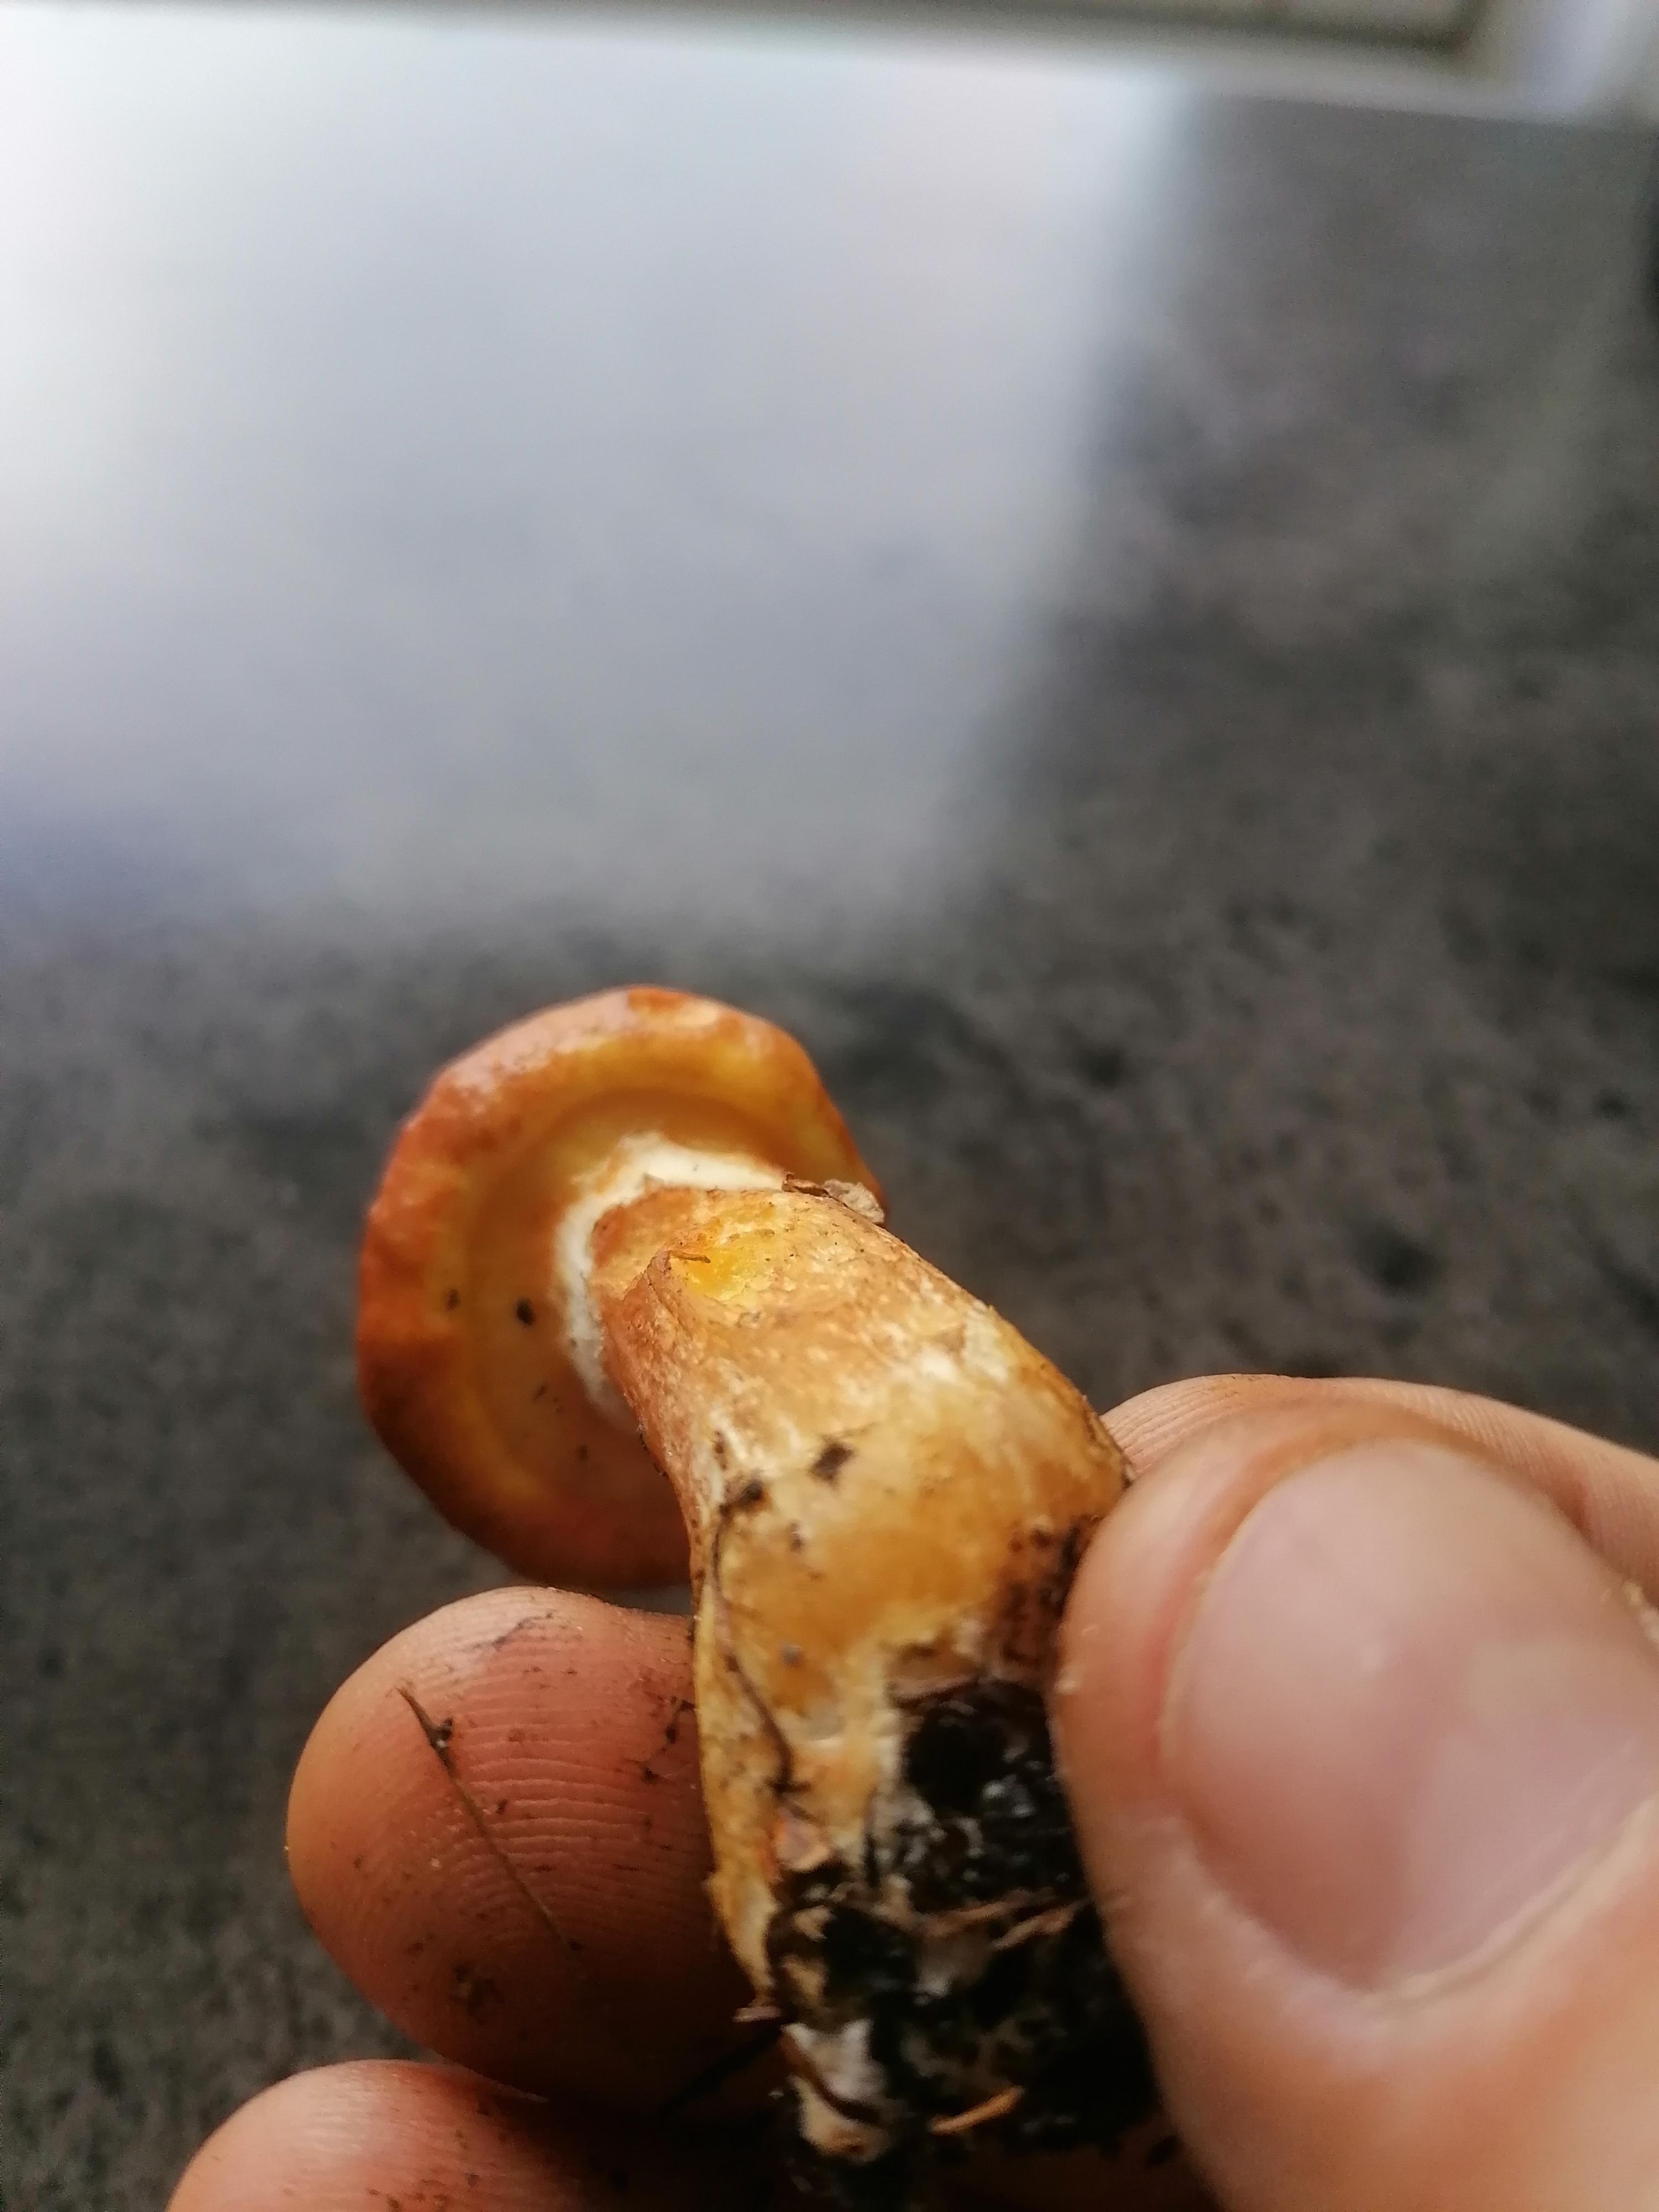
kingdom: Fungi
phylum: Basidiomycota
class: Agaricomycetes
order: Boletales
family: Suillaceae
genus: Suillus
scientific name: Suillus grevillei
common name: lærke-slimrørhat
